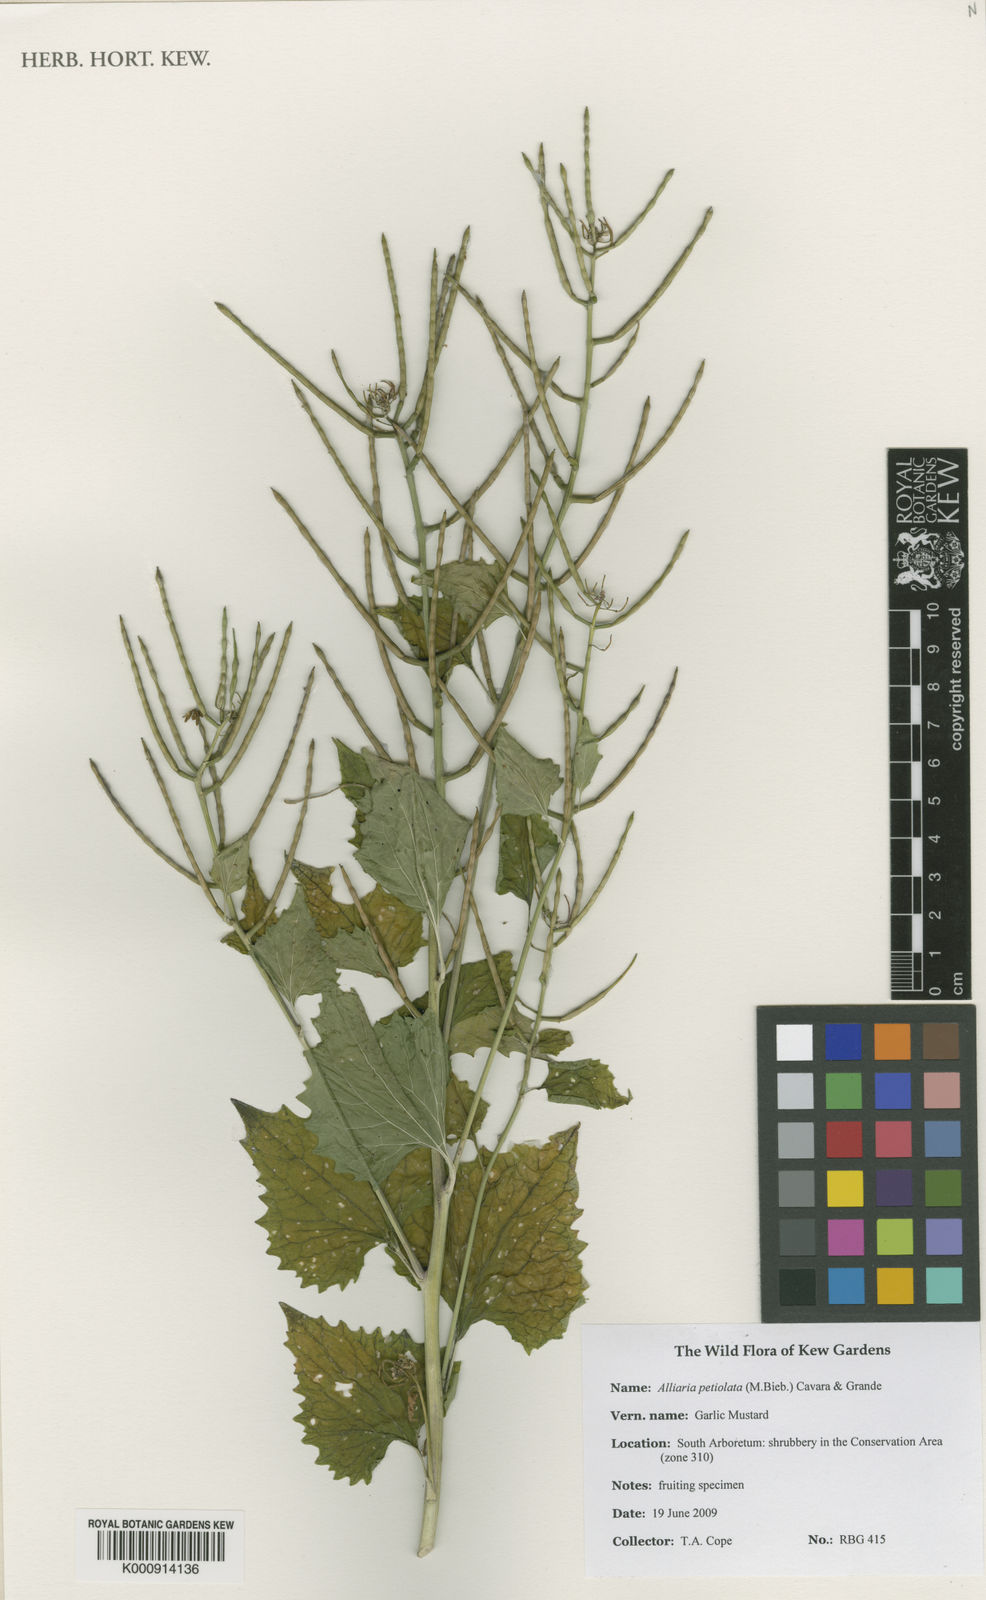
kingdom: Plantae
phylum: Tracheophyta
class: Magnoliopsida
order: Brassicales
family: Brassicaceae
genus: Alliaria
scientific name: Alliaria petiolata
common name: Garlic mustard
